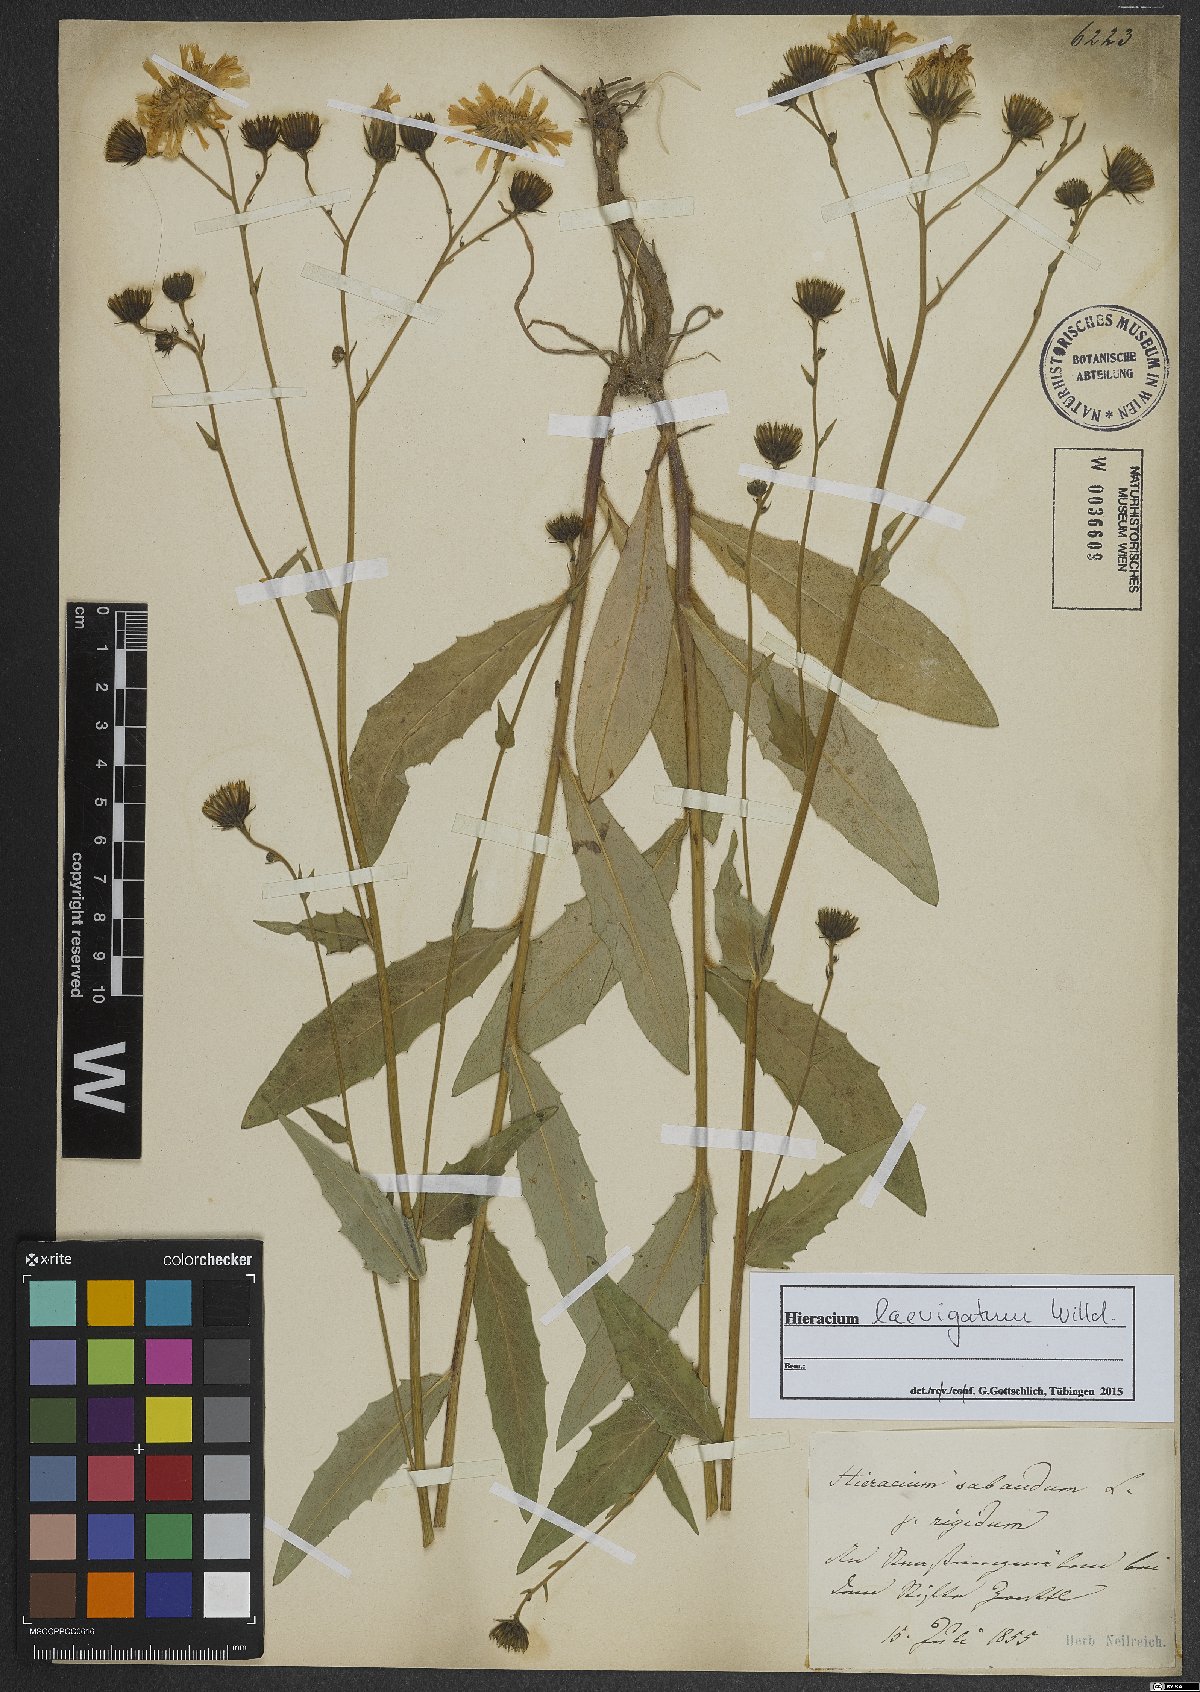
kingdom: Plantae
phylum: Tracheophyta
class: Magnoliopsida
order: Asterales
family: Asteraceae
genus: Hieracium
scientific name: Hieracium laevigatum
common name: Smooth hawkweed
